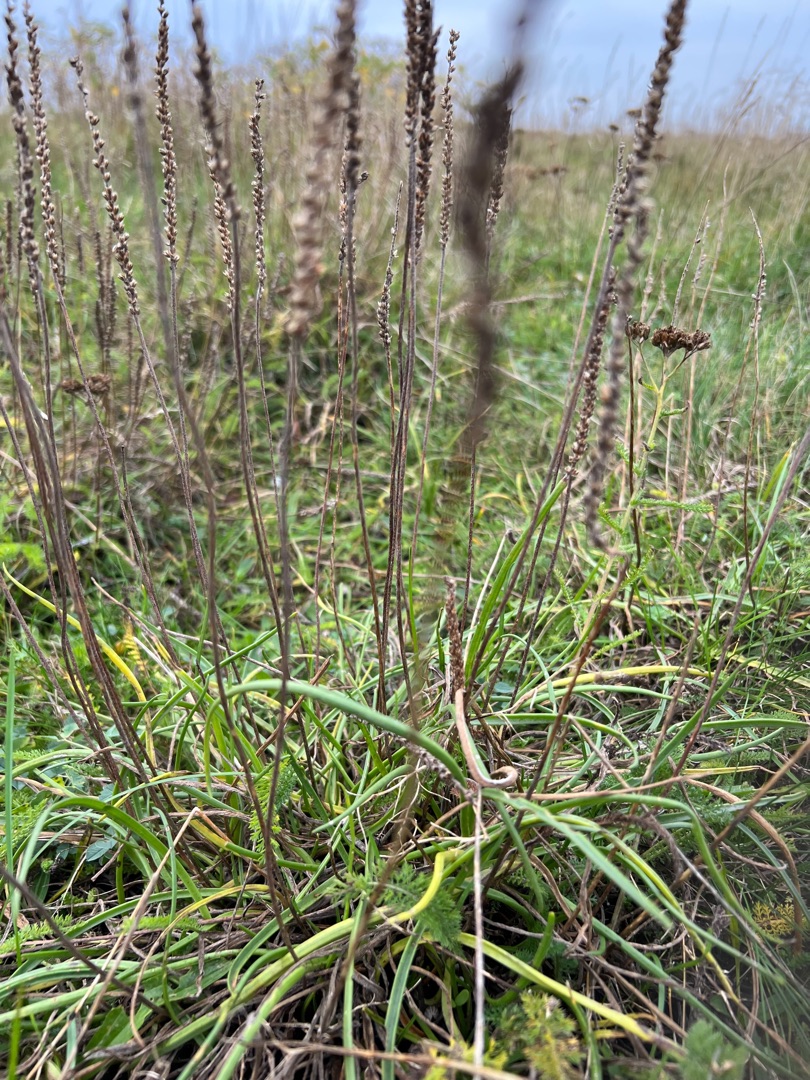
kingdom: Plantae
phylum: Tracheophyta
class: Magnoliopsida
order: Lamiales
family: Plantaginaceae
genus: Plantago
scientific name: Plantago maritima
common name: Strand-vejbred
